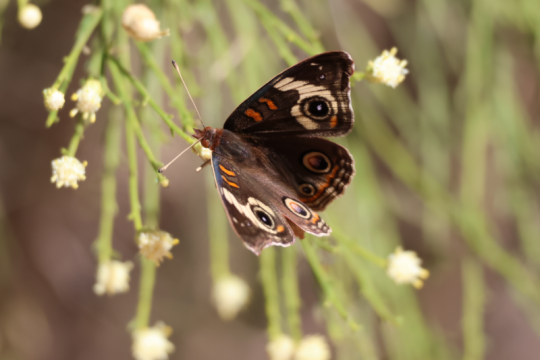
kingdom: Animalia
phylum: Arthropoda
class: Insecta
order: Lepidoptera
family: Nymphalidae
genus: Junonia
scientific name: Junonia coenia
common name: Common Buckeye
